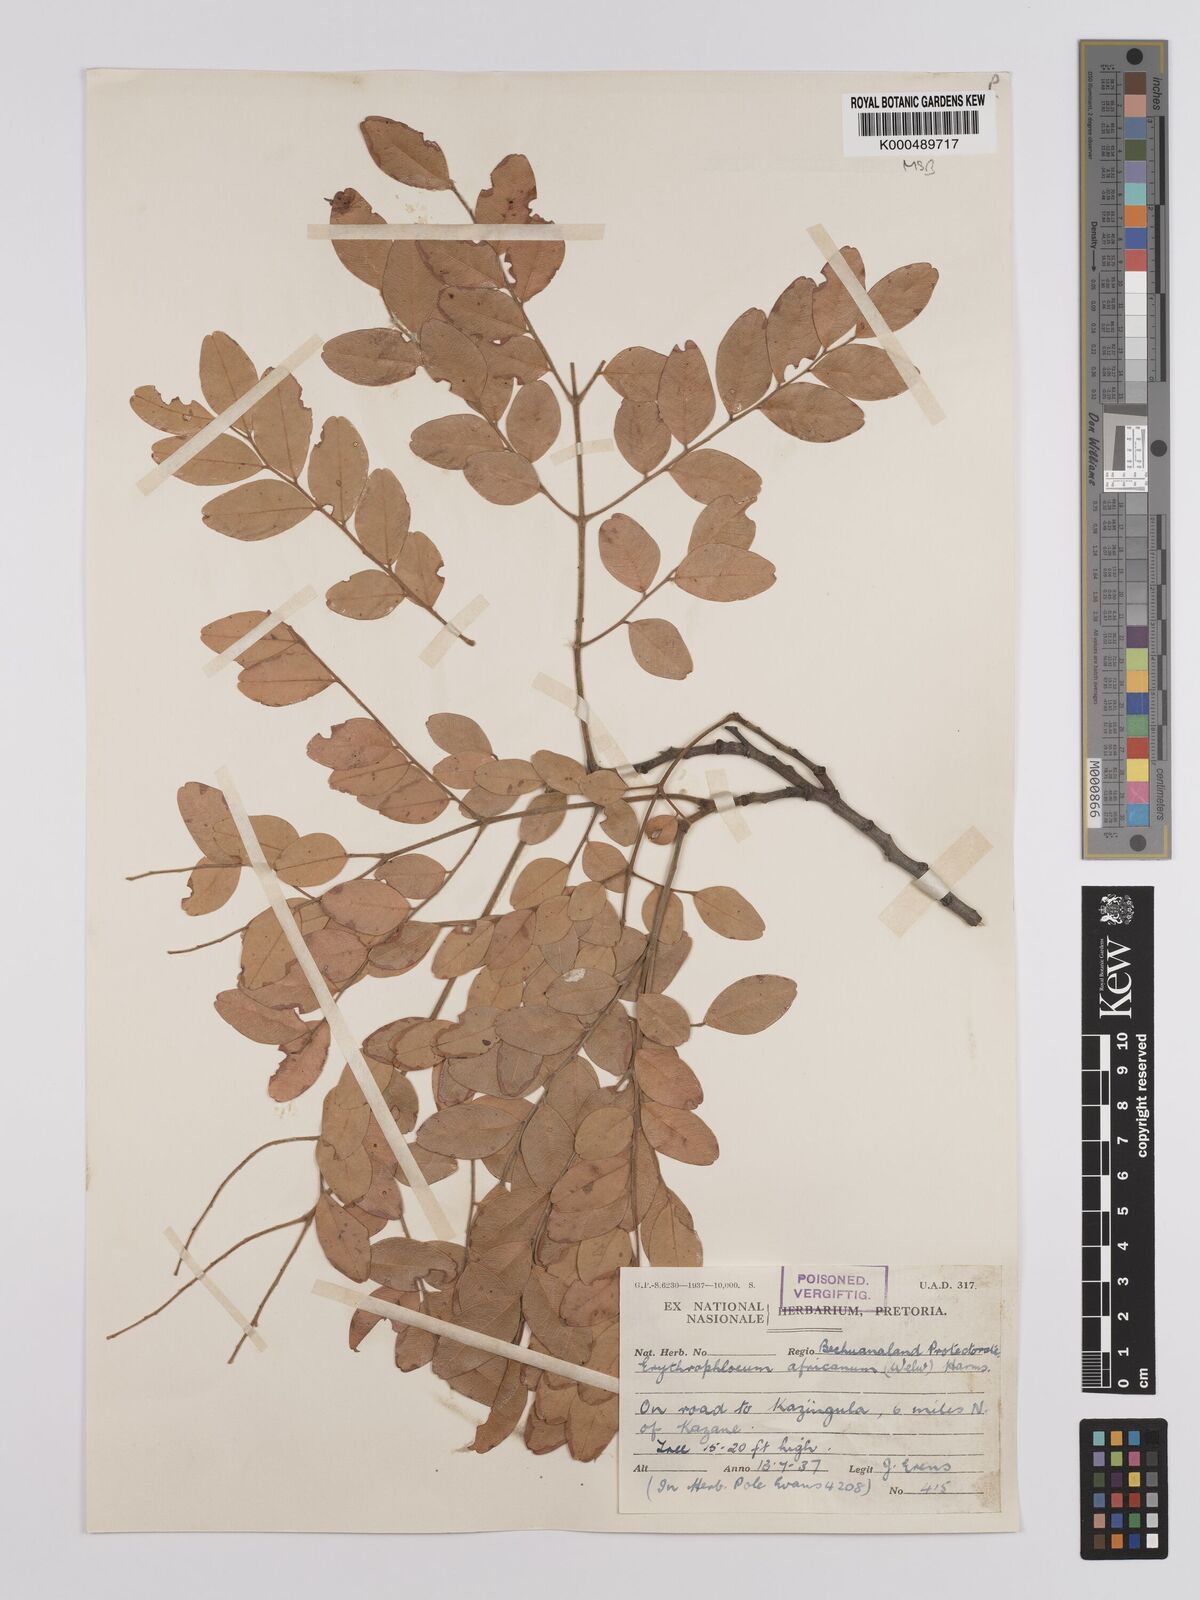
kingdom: Plantae
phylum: Tracheophyta
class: Magnoliopsida
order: Fabales
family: Fabaceae
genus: Erythrophleum
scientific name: Erythrophleum africanum
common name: African blackwood
